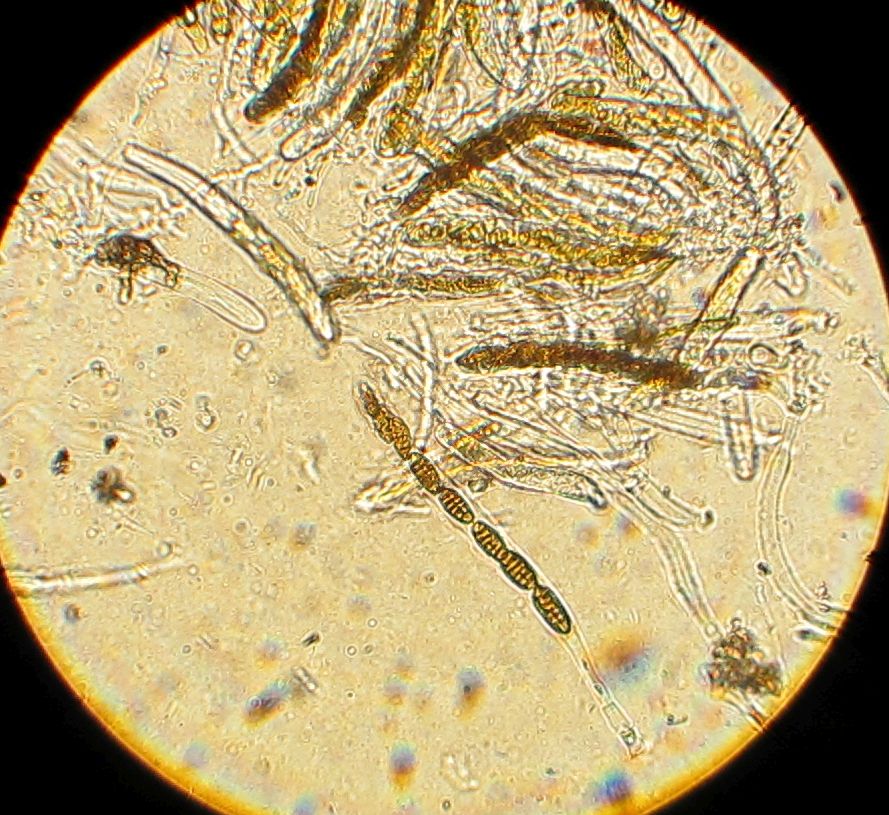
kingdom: Fungi
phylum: Ascomycota
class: Dothideomycetes
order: Pleosporales
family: Pleosporaceae
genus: Pleospora
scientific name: Pleospora
